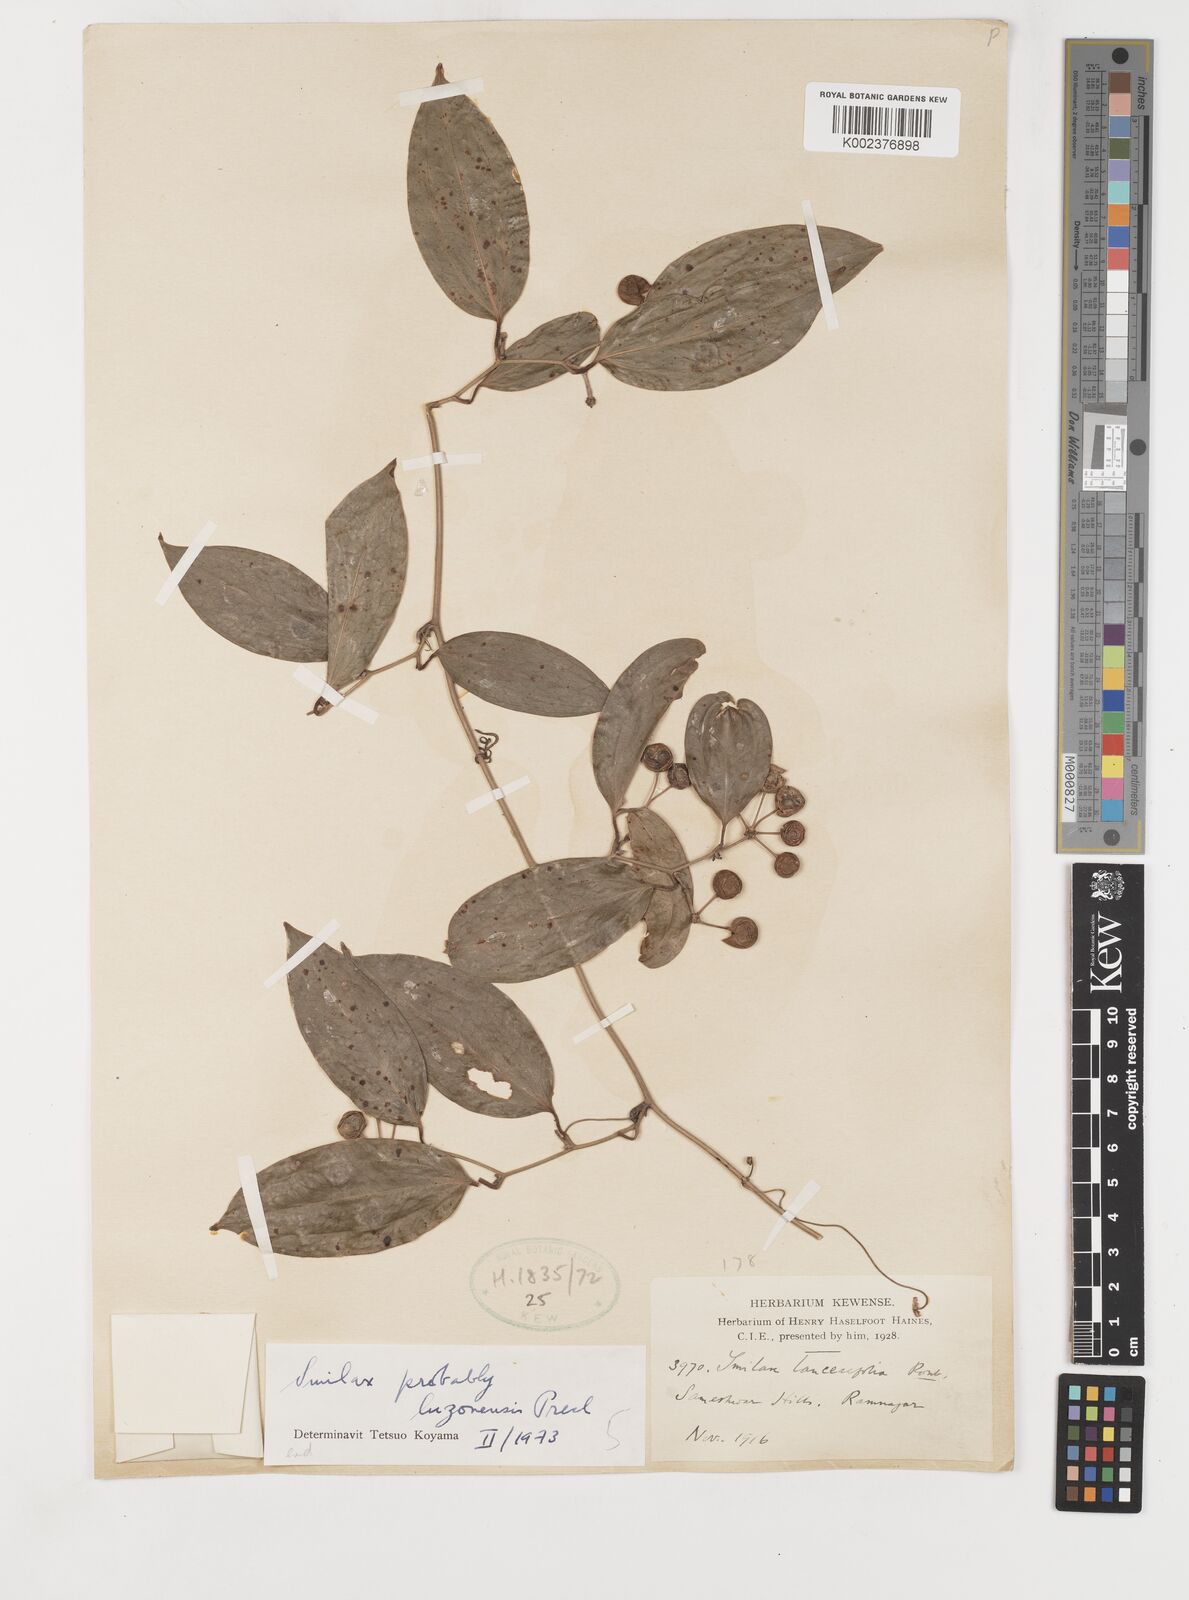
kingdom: Plantae
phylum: Tracheophyta
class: Liliopsida
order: Liliales
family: Smilacaceae
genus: Smilax
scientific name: Smilax luzonensis
